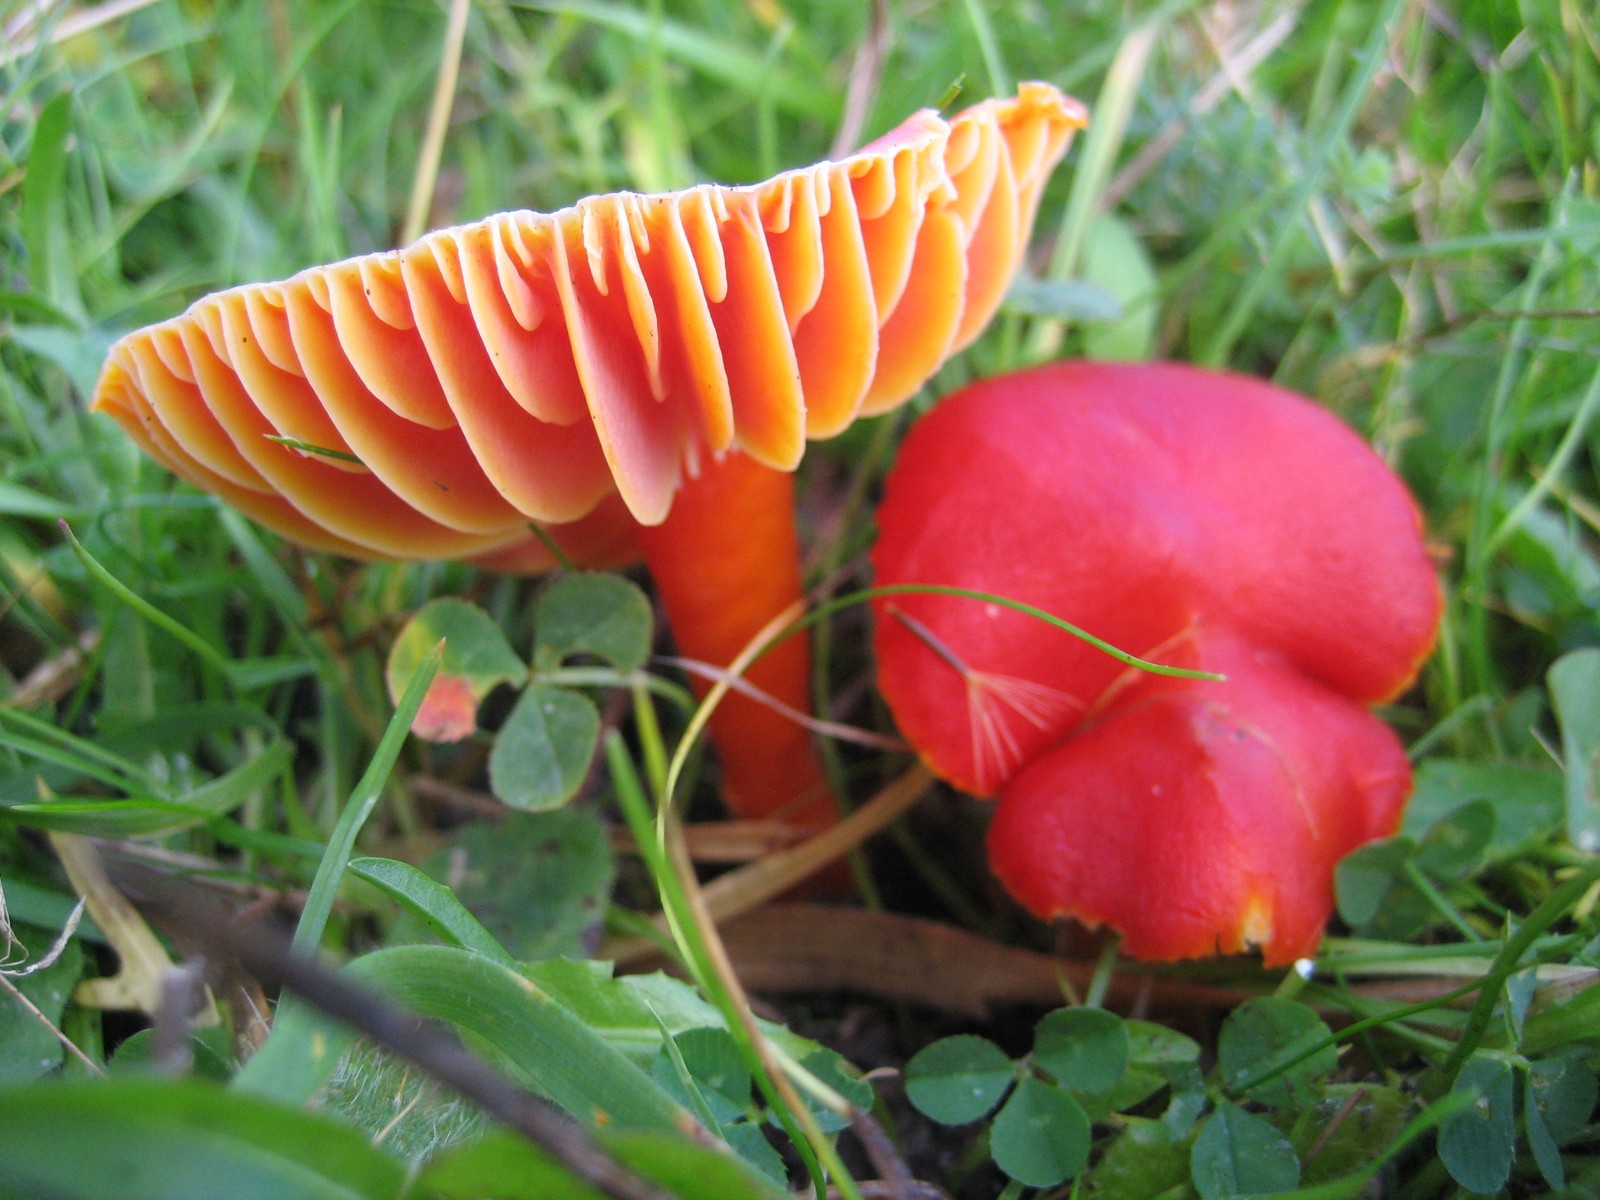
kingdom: Fungi
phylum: Basidiomycota
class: Agaricomycetes
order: Agaricales
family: Hygrophoraceae
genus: Hygrocybe
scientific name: Hygrocybe coccinea
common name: cinnober-vokshat
